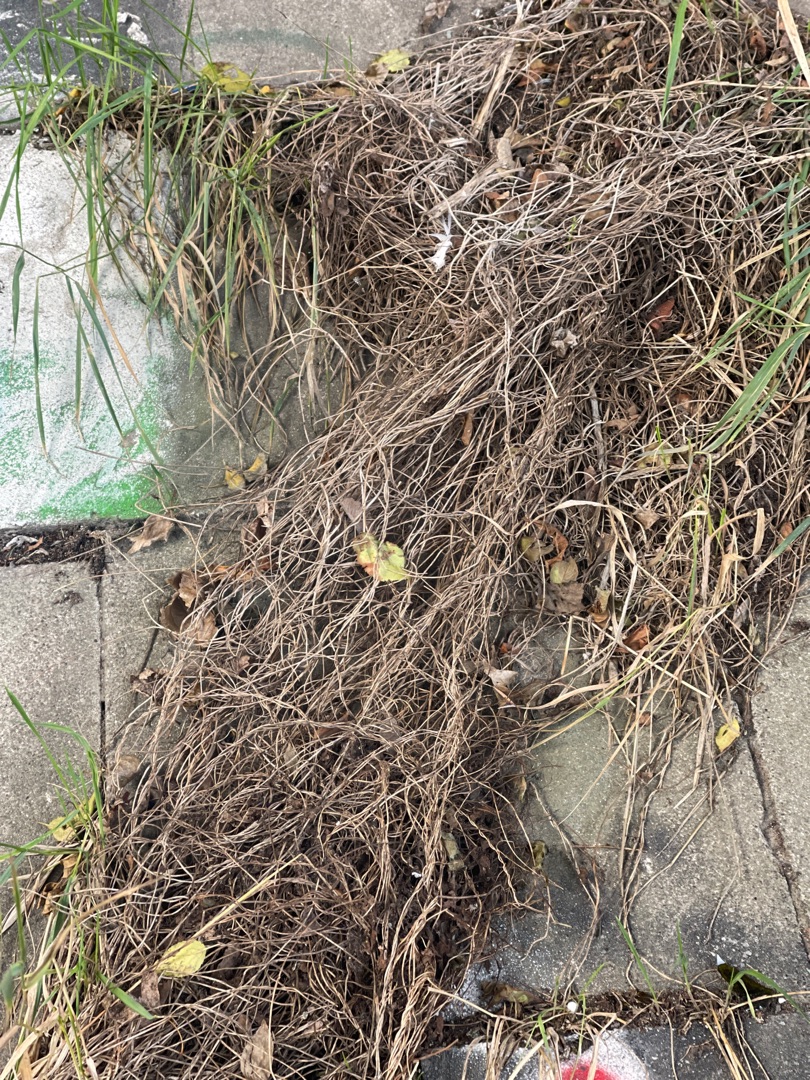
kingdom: Plantae
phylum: Tracheophyta
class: Liliopsida
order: Poales
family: Poaceae
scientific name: Poaceae
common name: Græsfamilien
